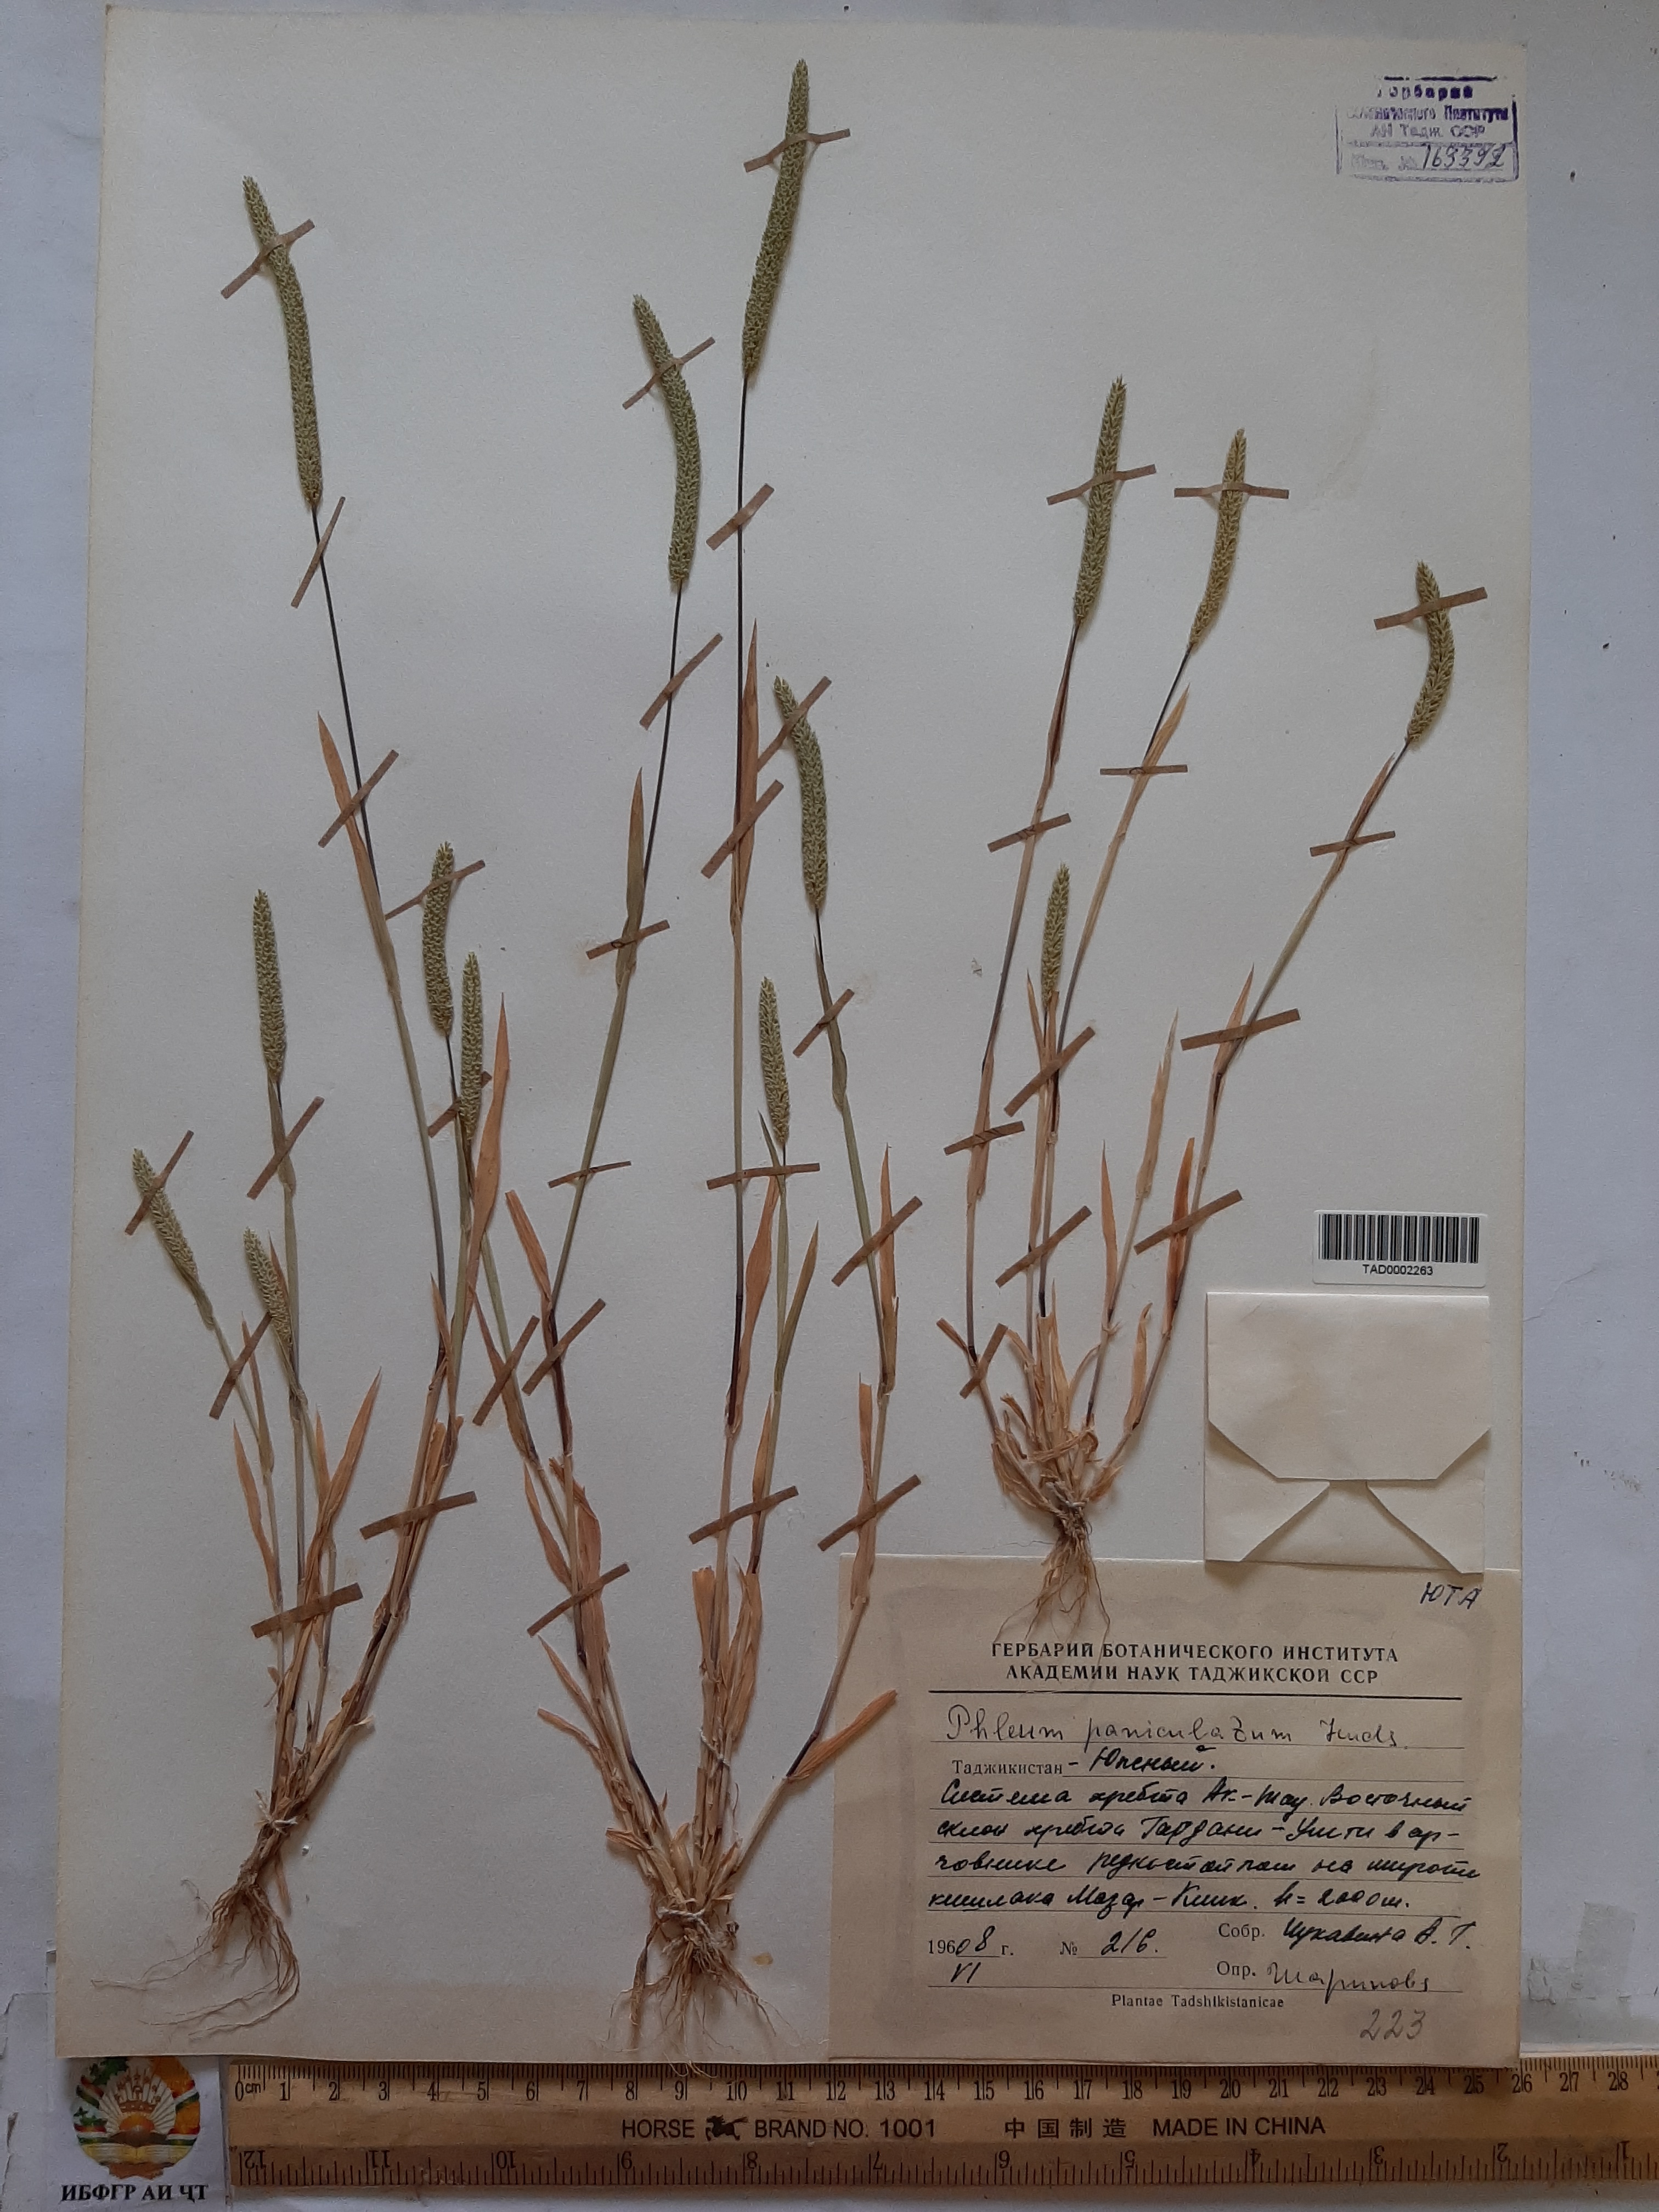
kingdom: Plantae
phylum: Tracheophyta
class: Liliopsida
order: Poales
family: Poaceae
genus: Phleum
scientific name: Phleum paniculatum
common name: British timothy
